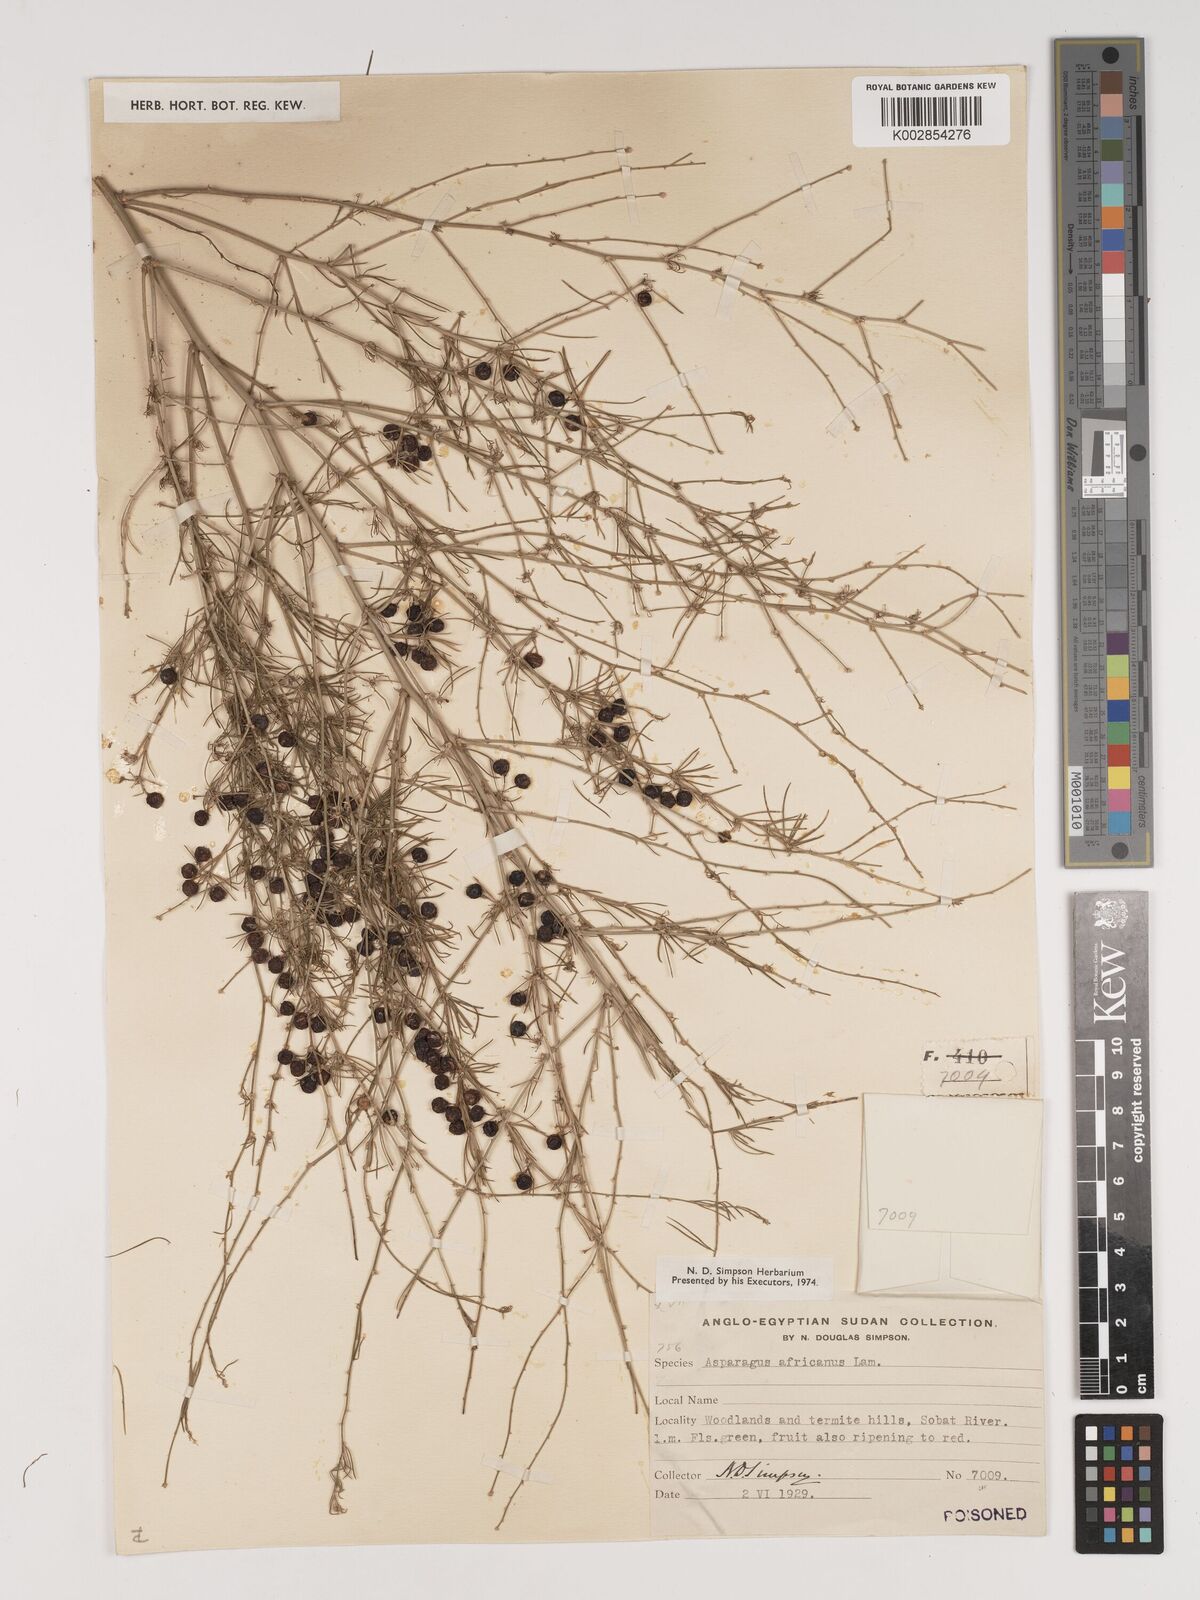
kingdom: Plantae
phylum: Tracheophyta
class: Liliopsida
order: Asparagales
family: Asparagaceae
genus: Asparagus
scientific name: Asparagus africanus
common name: Asparagus-fern
